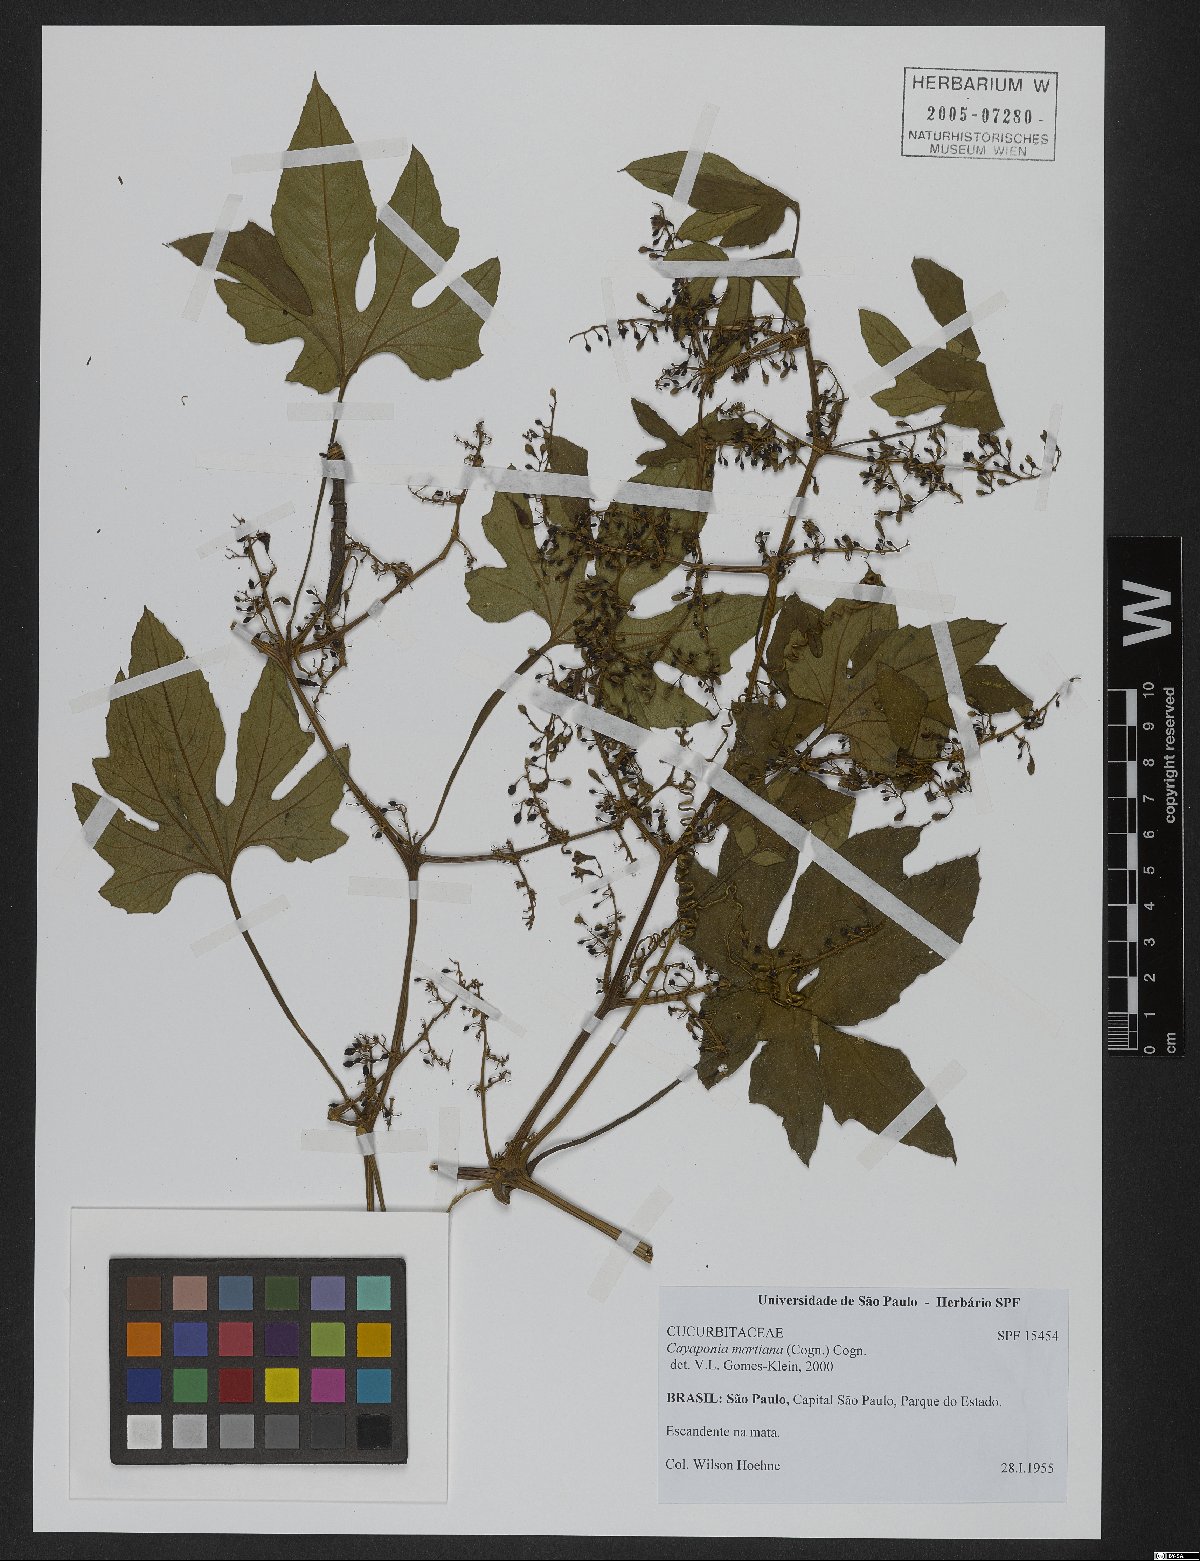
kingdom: Plantae
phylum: Tracheophyta
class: Magnoliopsida
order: Cucurbitales
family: Cucurbitaceae
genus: Cayaponia
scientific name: Cayaponia martiana
